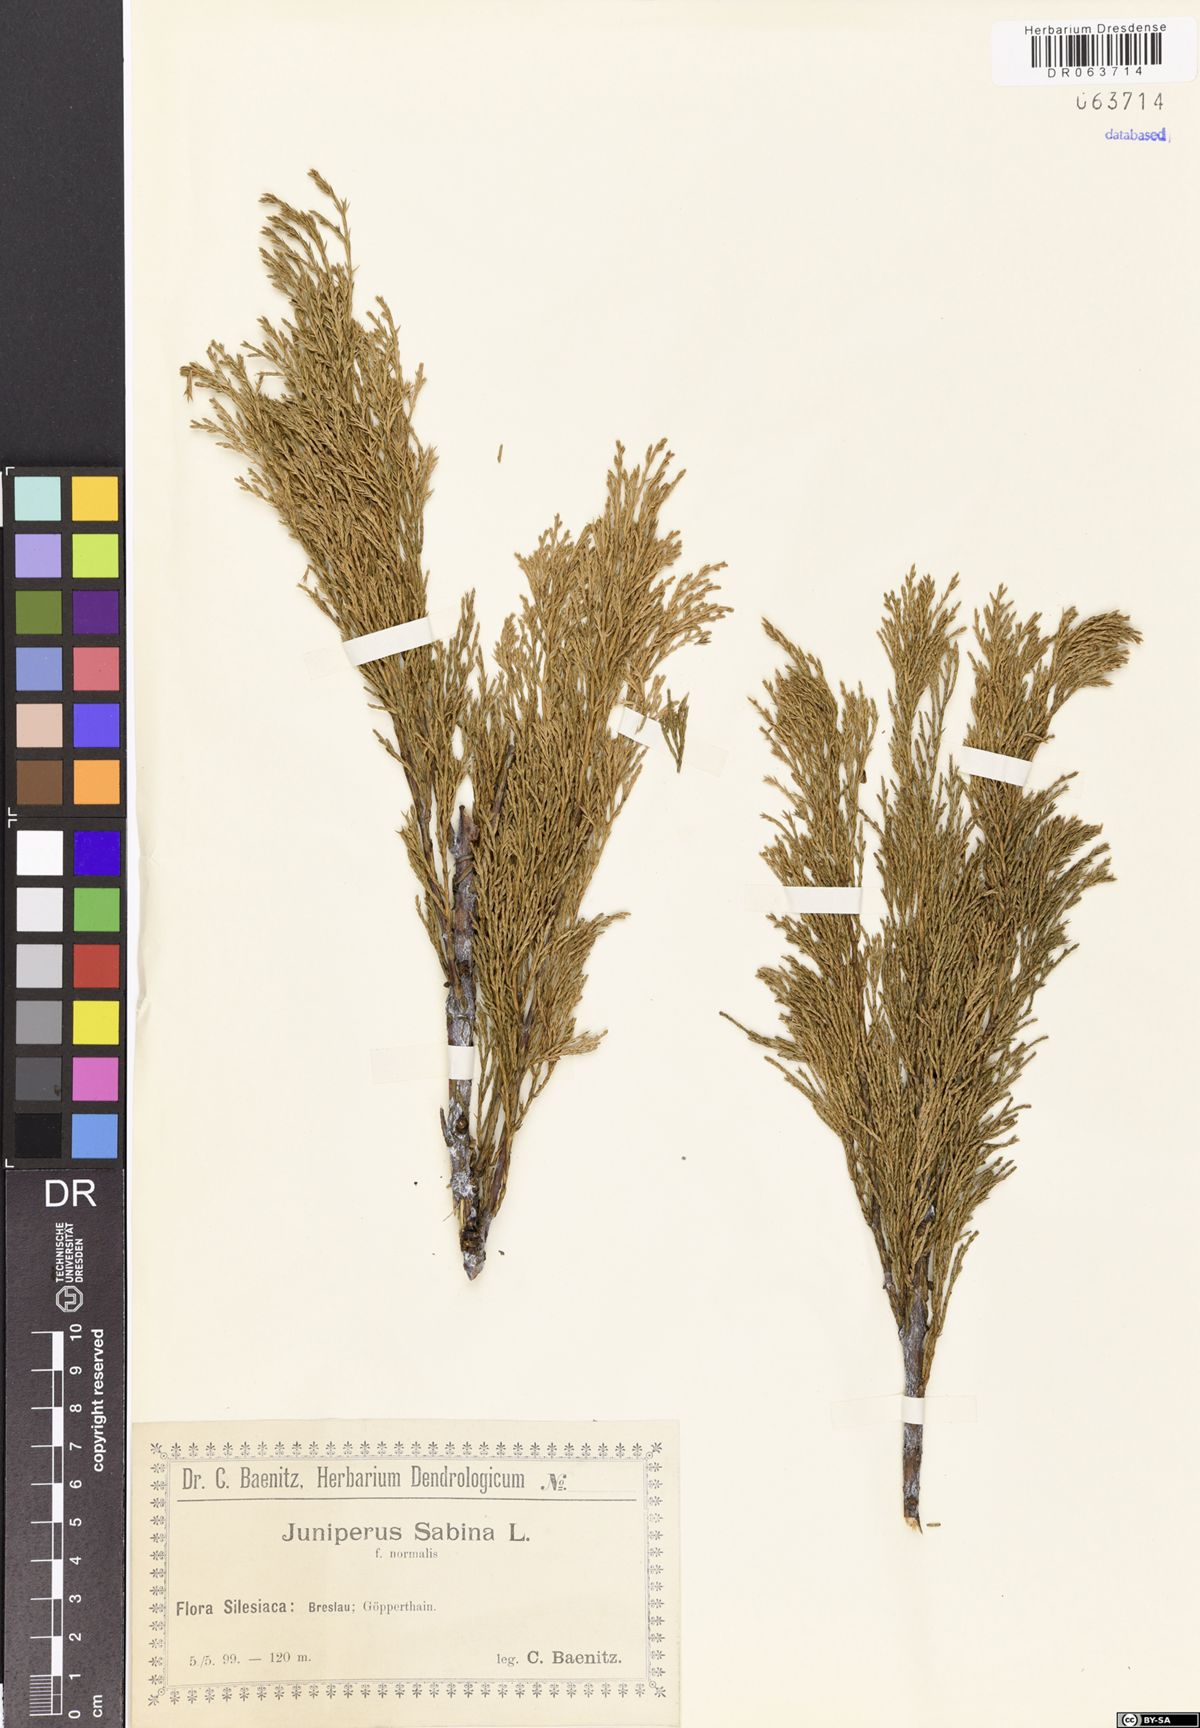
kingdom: Plantae
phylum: Tracheophyta
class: Pinopsida
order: Pinales
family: Cupressaceae
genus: Juniperus
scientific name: Juniperus sabina
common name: Savin
